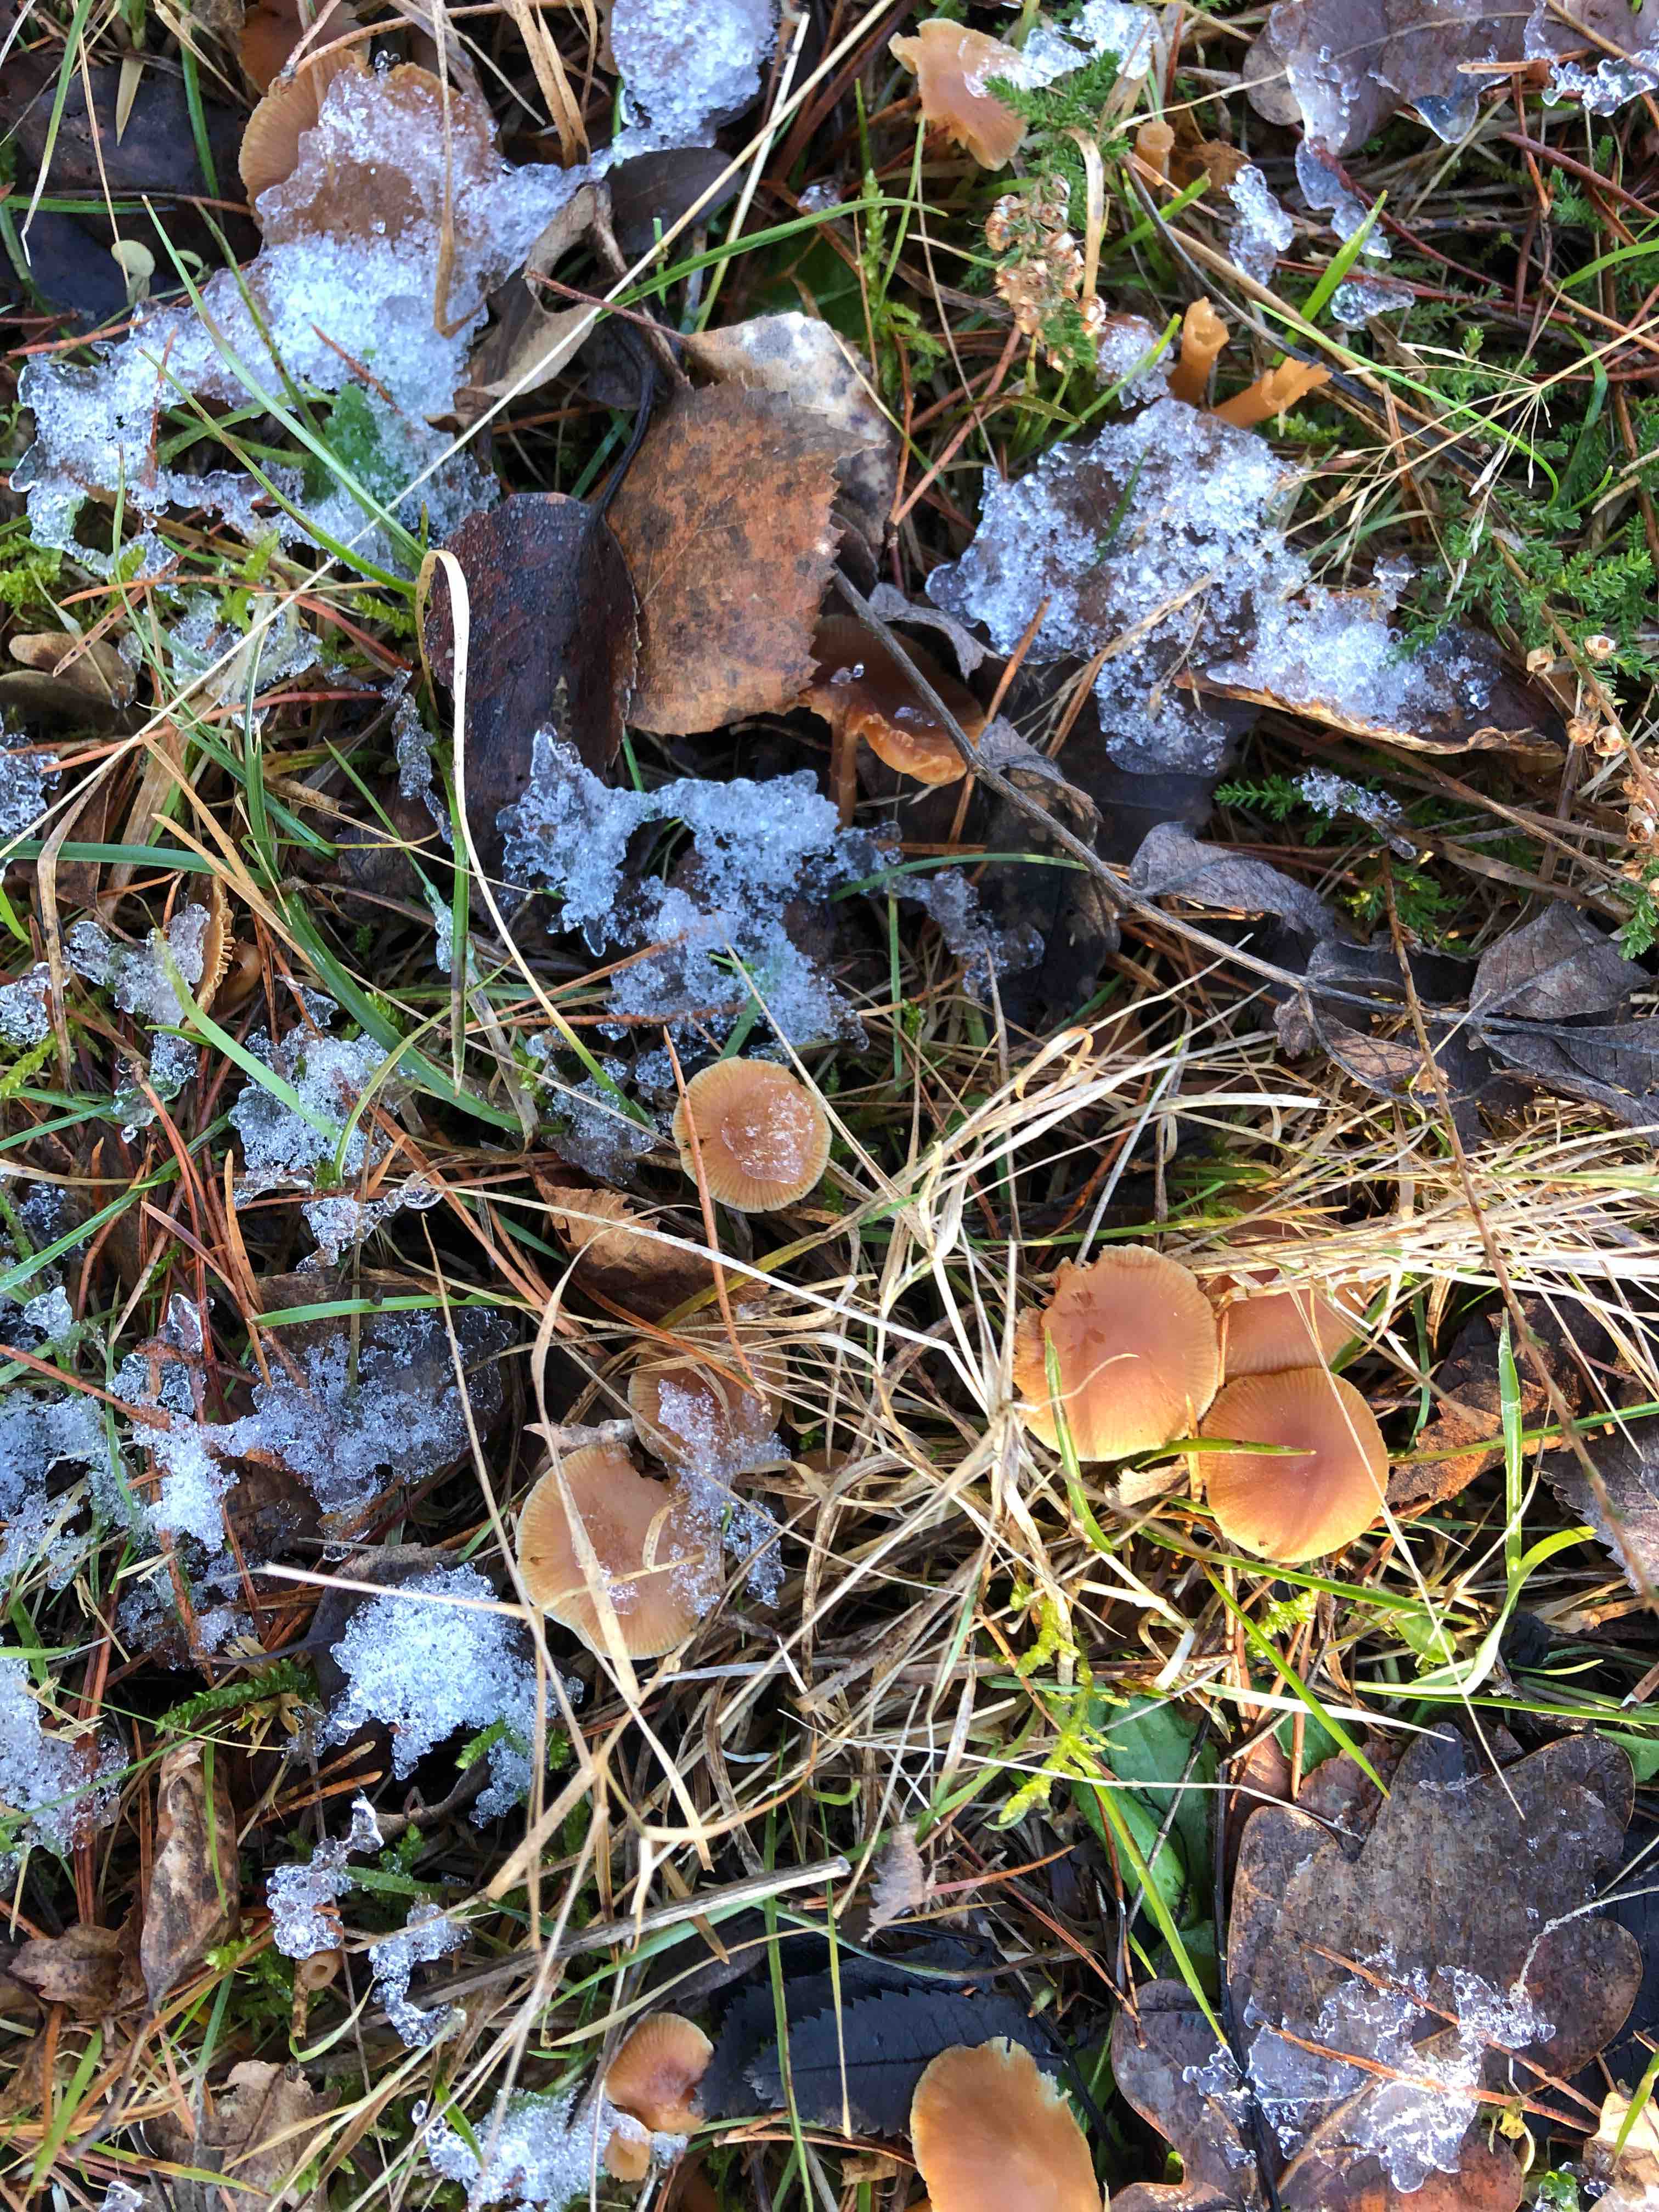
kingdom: Fungi
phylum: Basidiomycota
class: Agaricomycetes
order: Agaricales
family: Tubariaceae
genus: Tubaria
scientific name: Tubaria furfuracea
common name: kliddet fnughat
